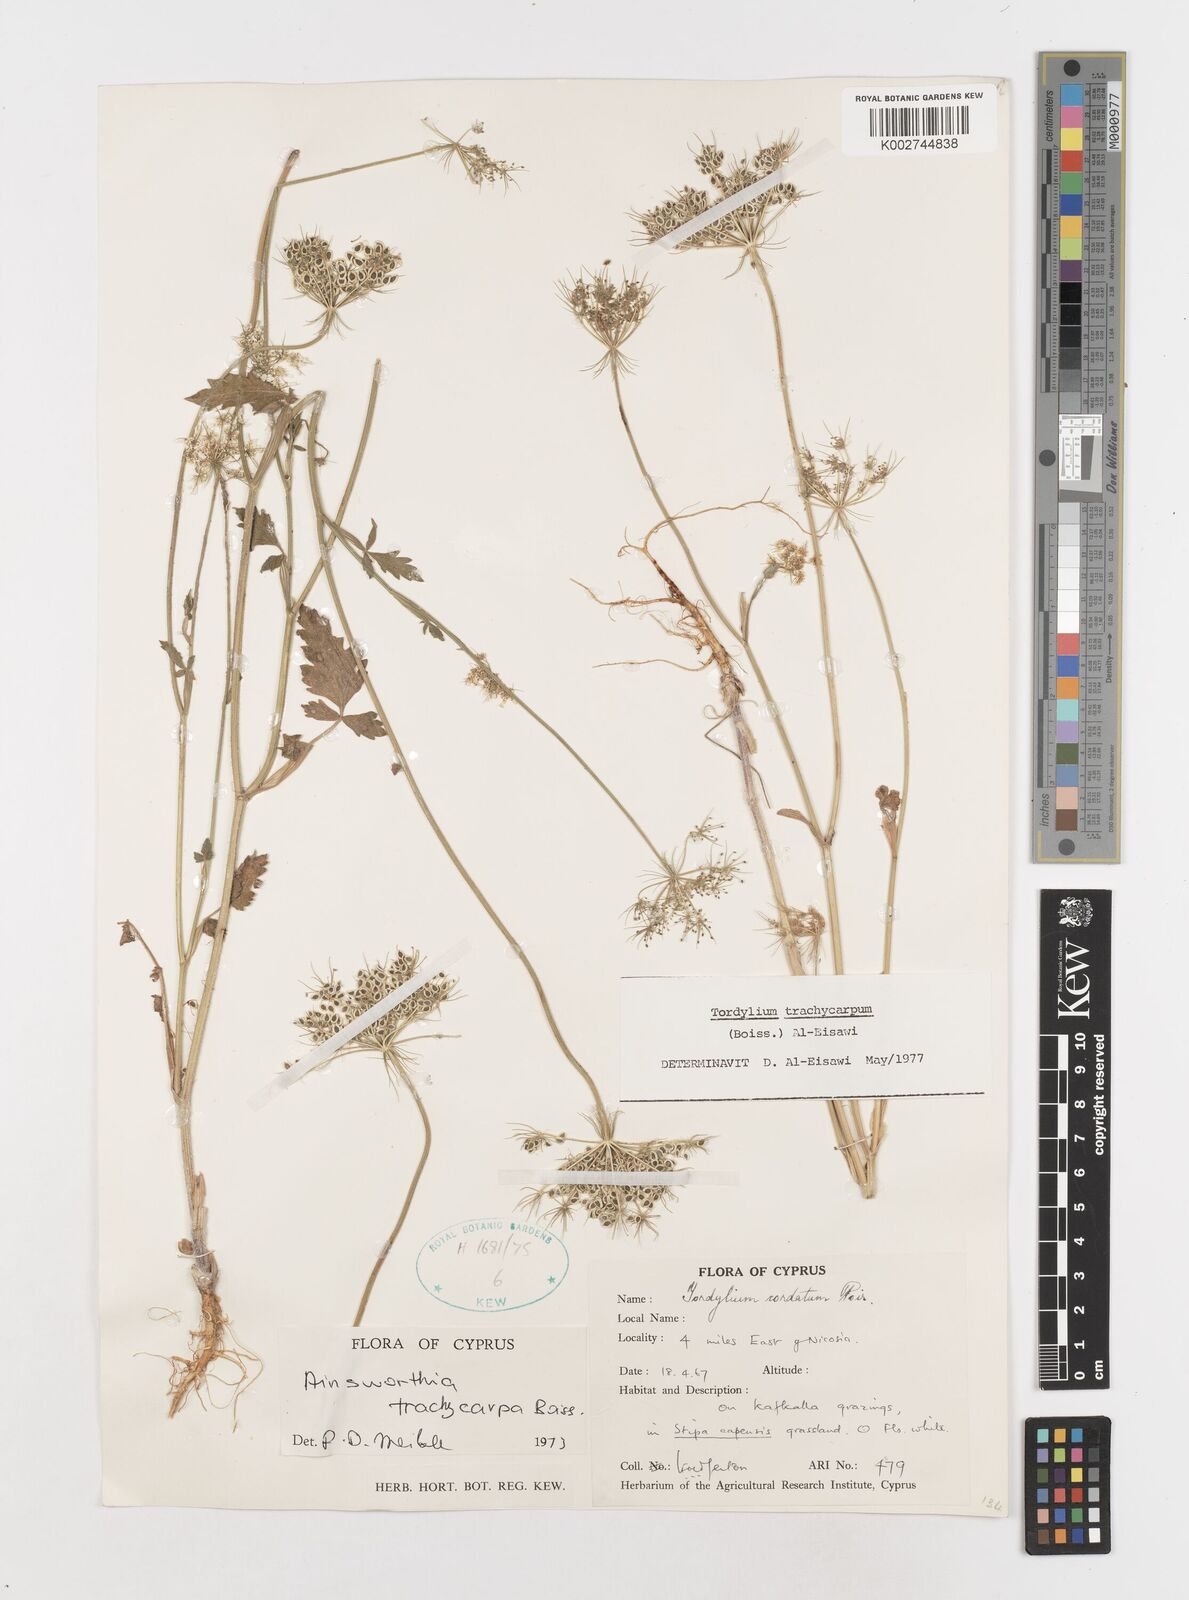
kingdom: Plantae
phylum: Tracheophyta
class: Magnoliopsida
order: Apiales
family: Apiaceae
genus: Ainsworthia
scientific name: Ainsworthia trachycarpa
